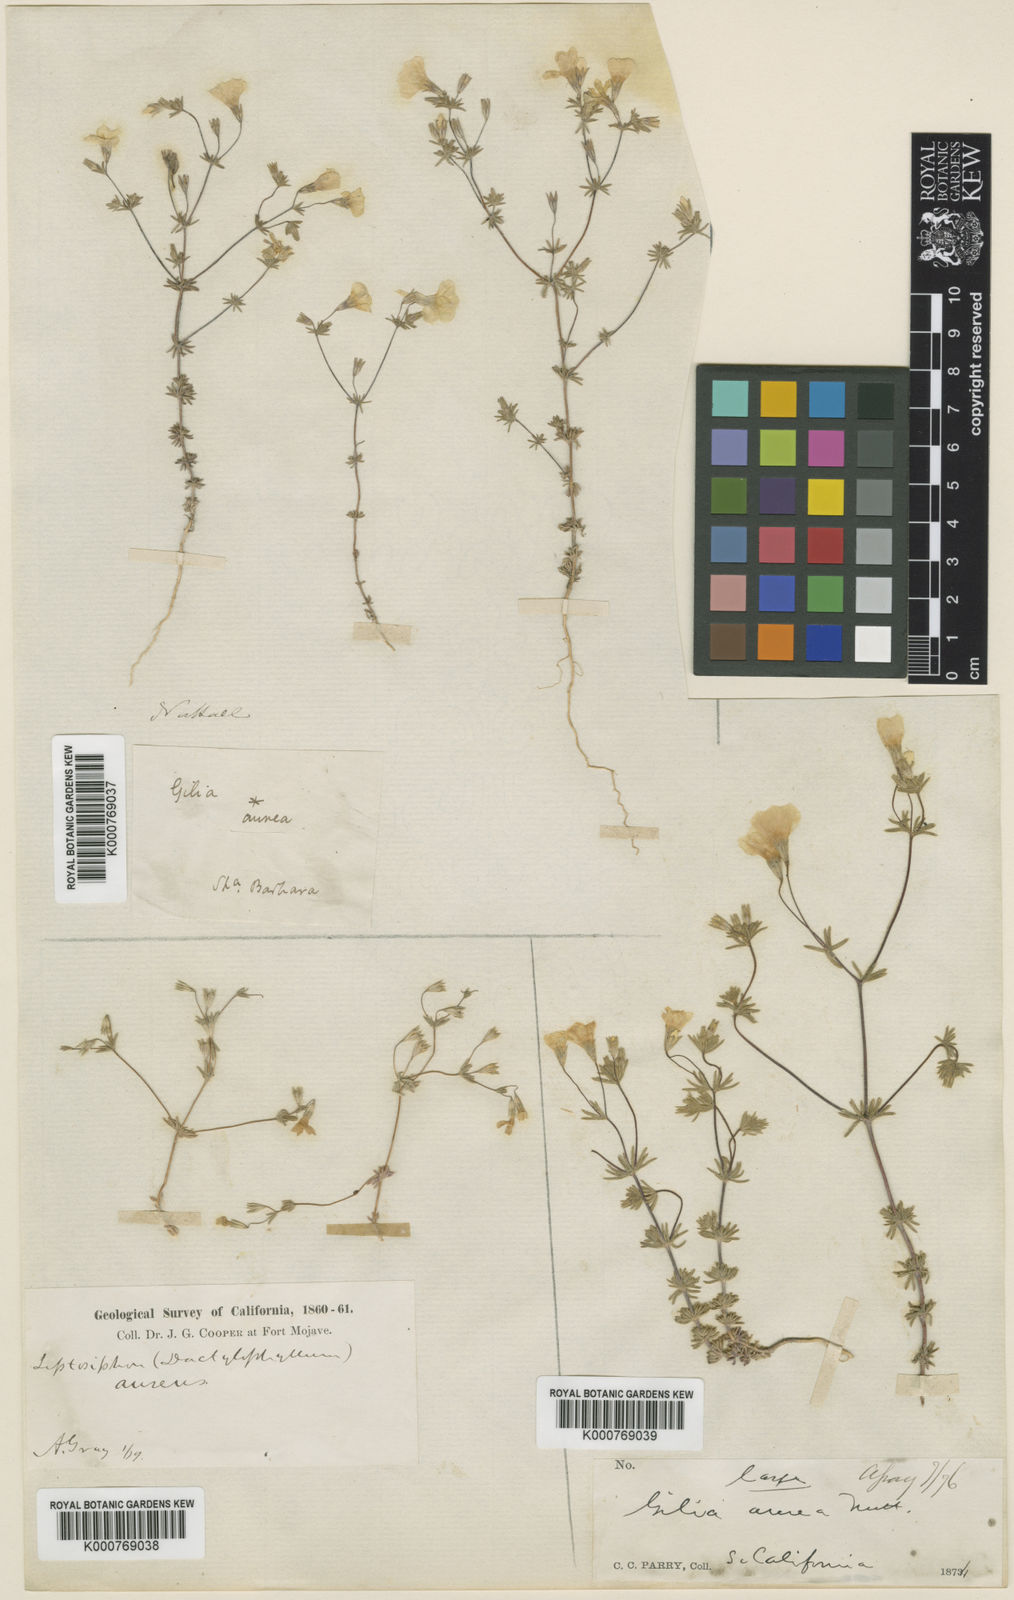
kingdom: Plantae
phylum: Tracheophyta
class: Magnoliopsida
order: Ericales
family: Polemoniaceae
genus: Leptosiphon
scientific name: Leptosiphon chrysanthus
